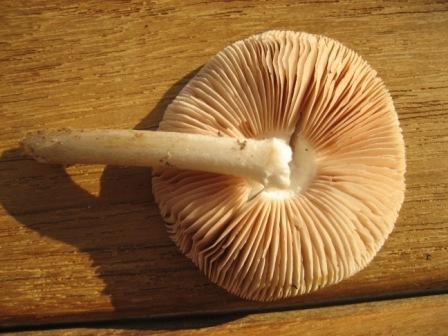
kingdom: Fungi
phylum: Basidiomycota
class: Agaricomycetes
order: Agaricales
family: Pluteaceae
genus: Pluteus
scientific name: Pluteus cervinus
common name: sodfarvet skærmhat
